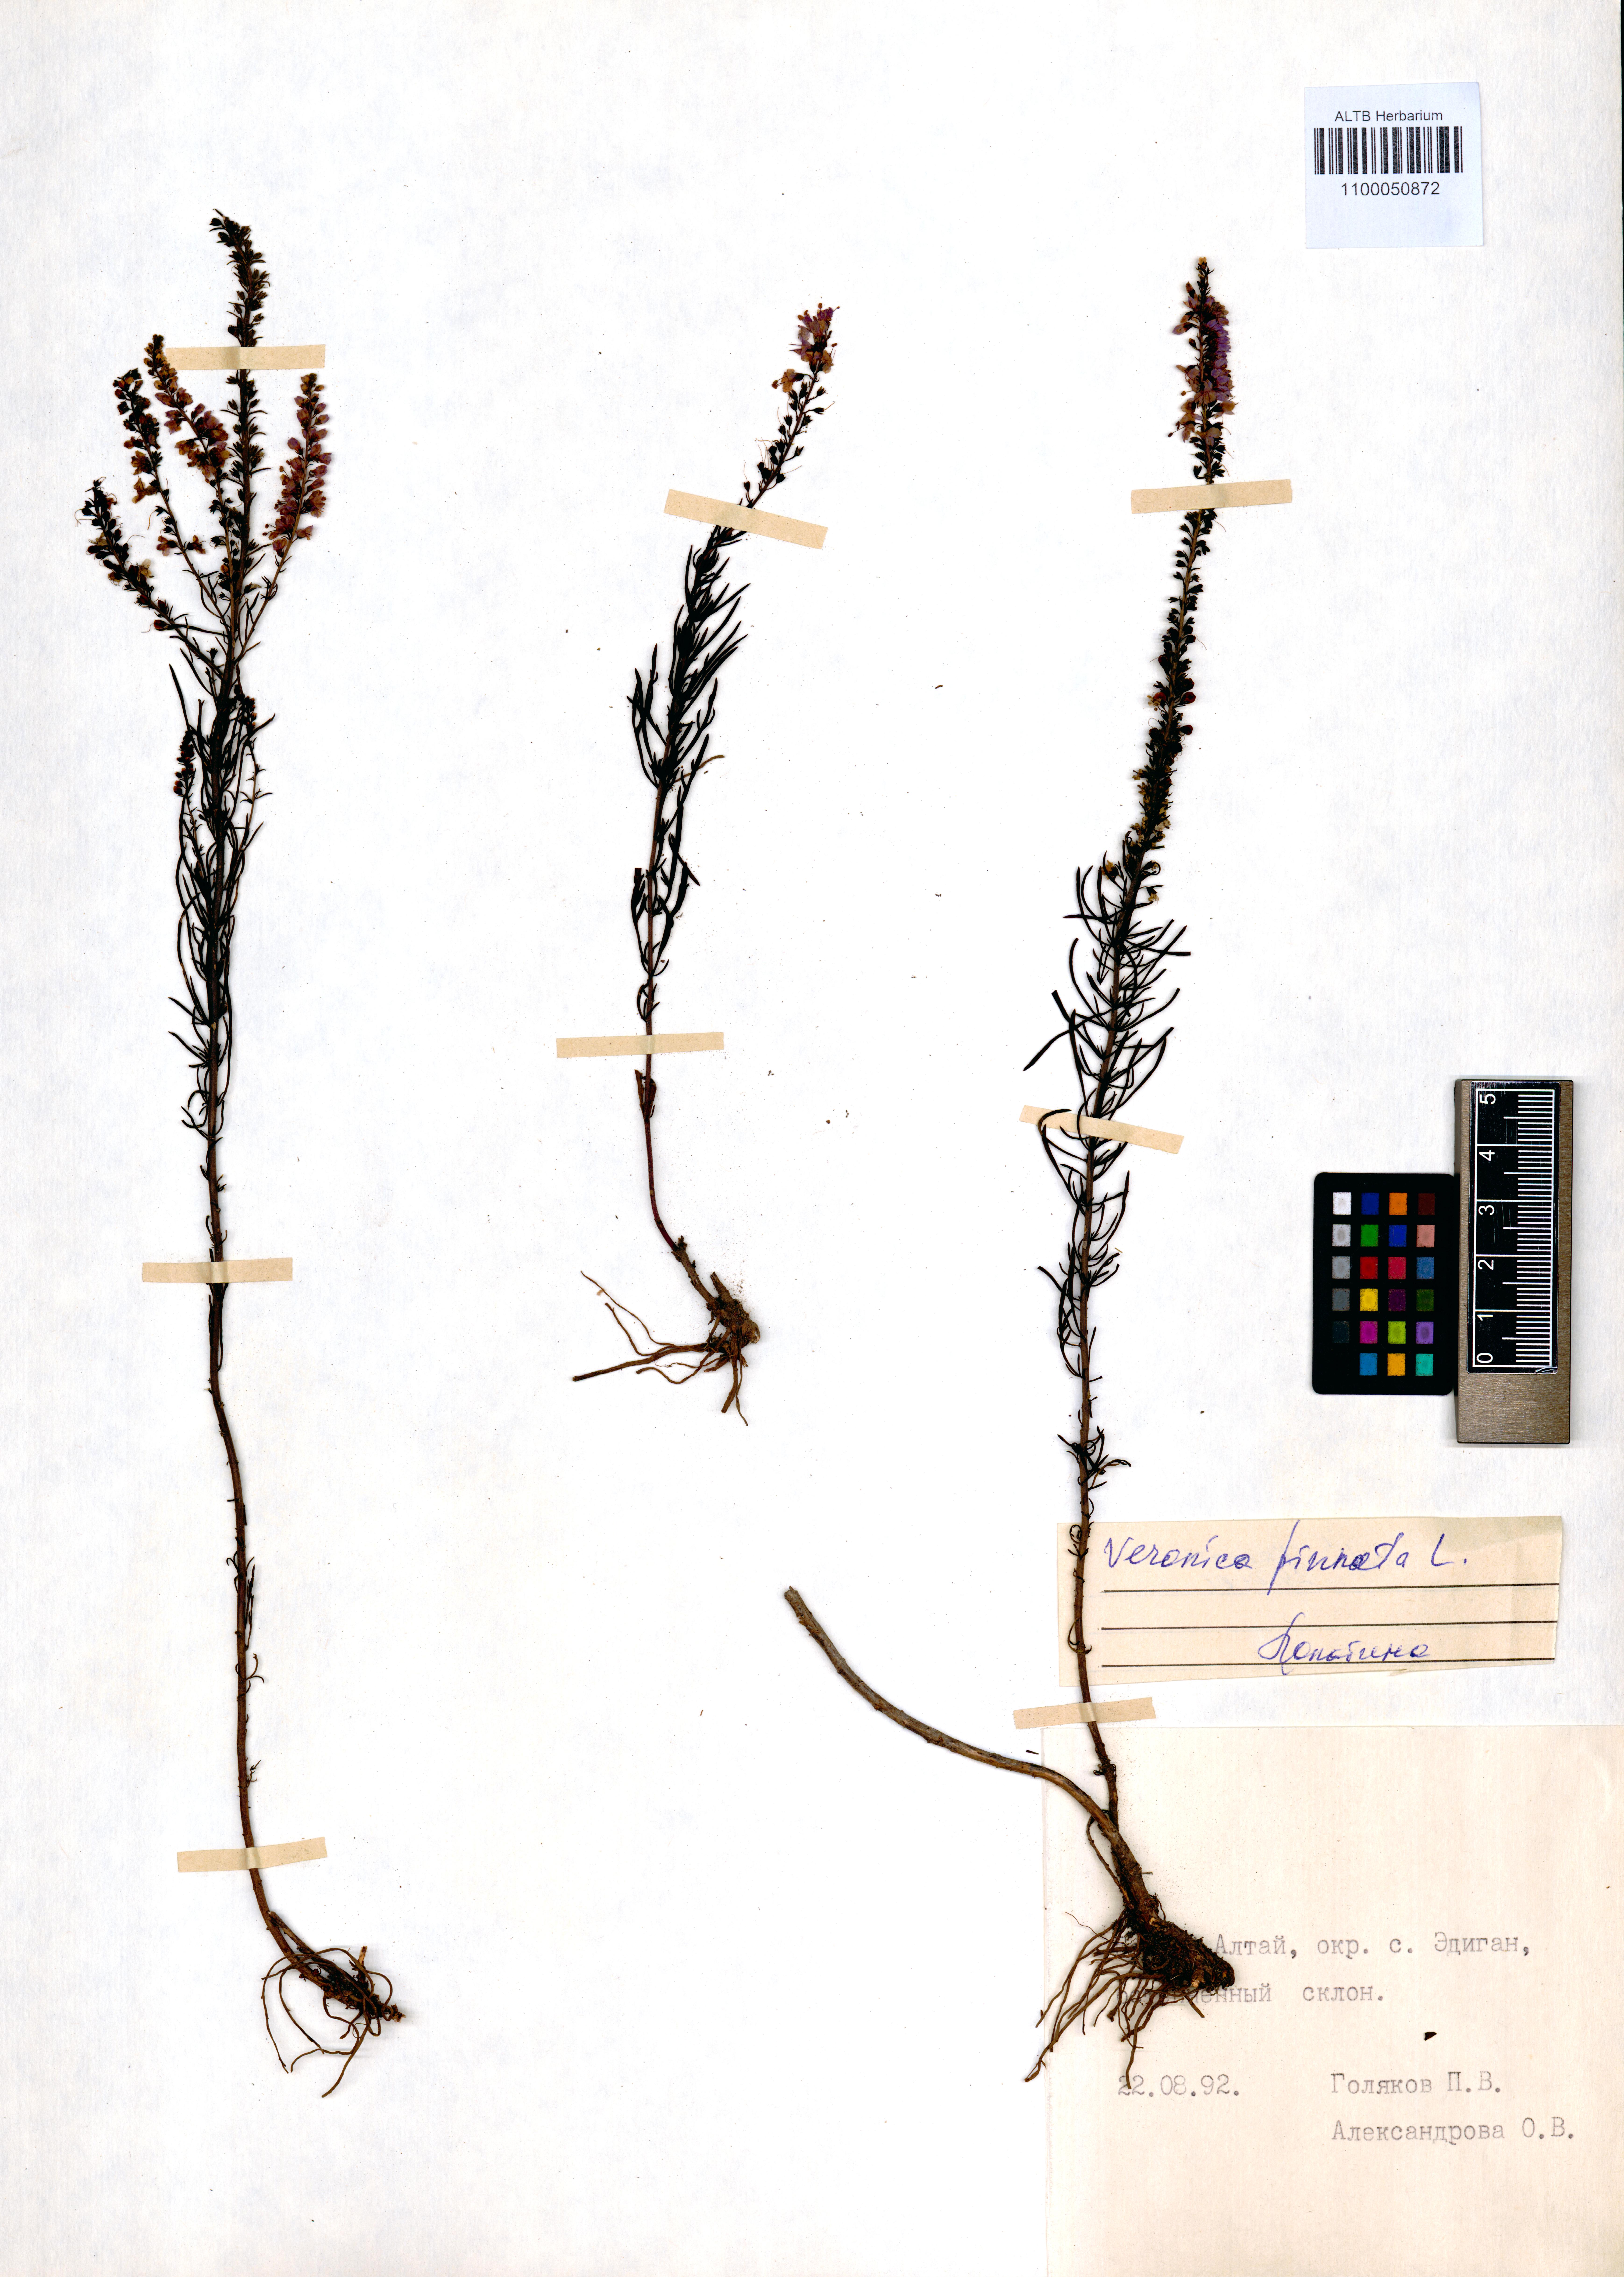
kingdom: Plantae
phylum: Tracheophyta
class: Magnoliopsida
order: Lamiales
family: Plantaginaceae
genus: Veronica
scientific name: Veronica pinnata
